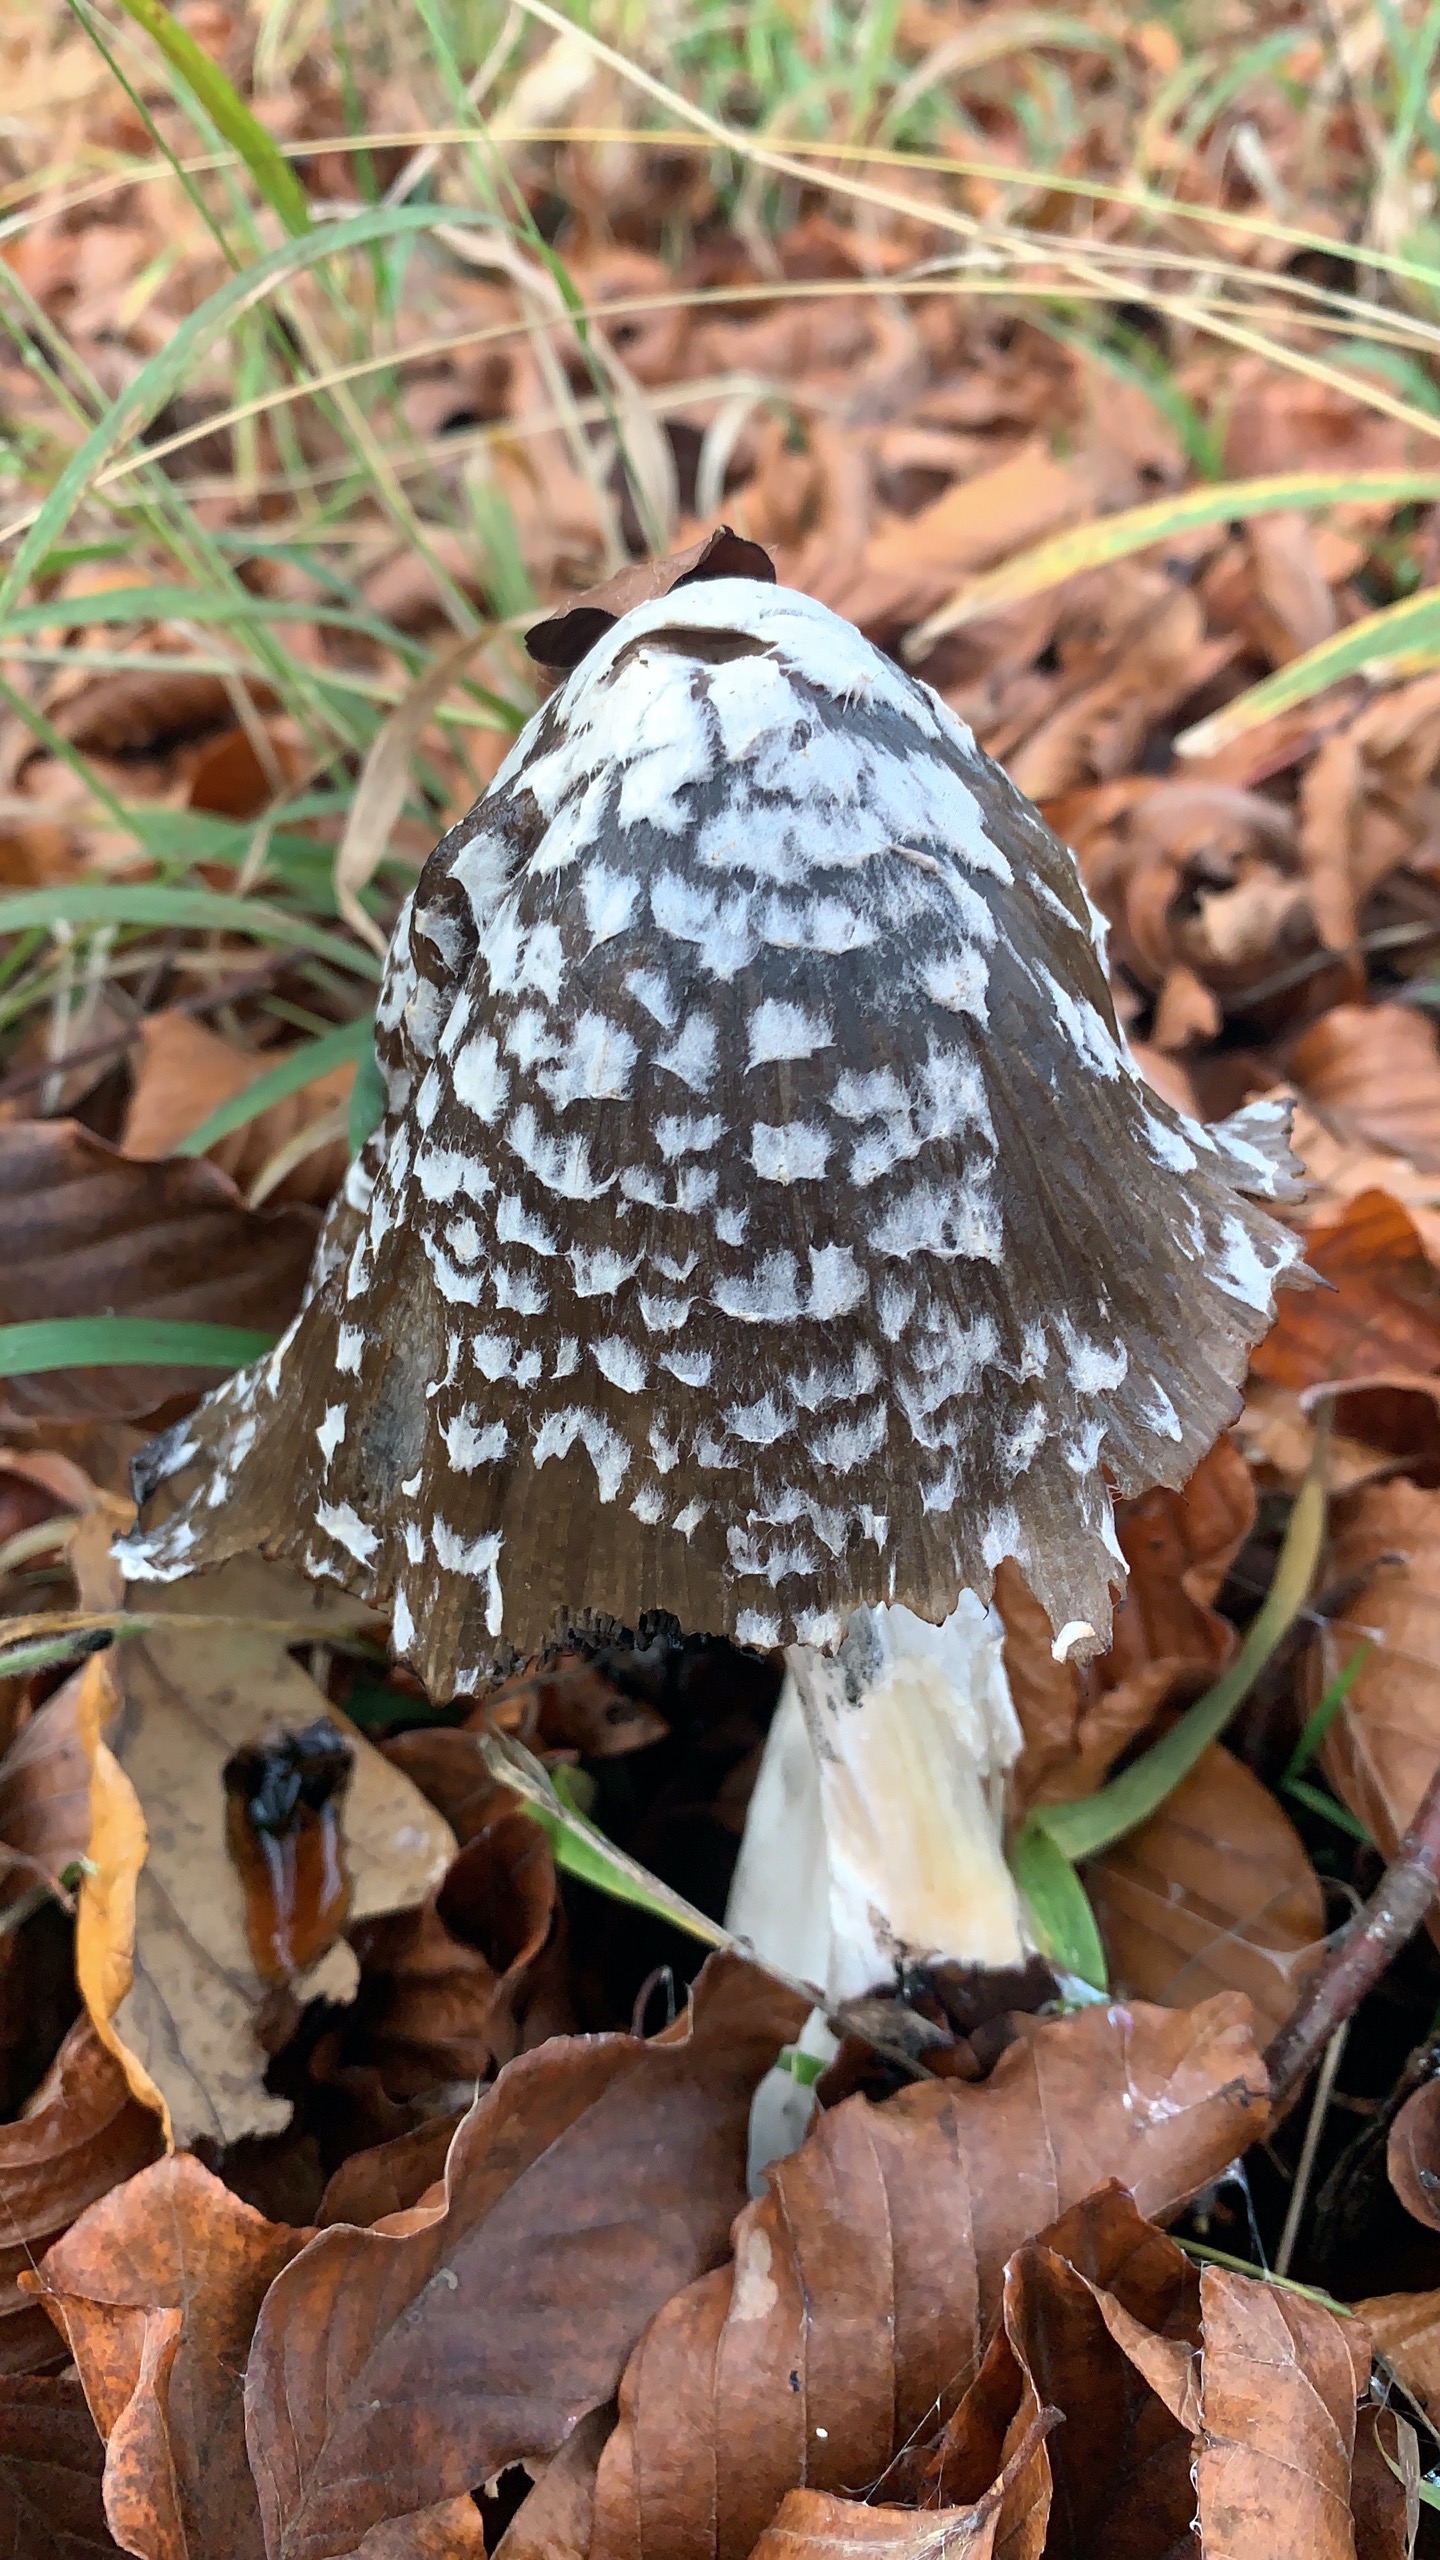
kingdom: Fungi
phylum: Basidiomycota
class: Agaricomycetes
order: Agaricales
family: Psathyrellaceae
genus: Coprinopsis
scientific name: Coprinopsis picacea
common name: Skade-blækhat
